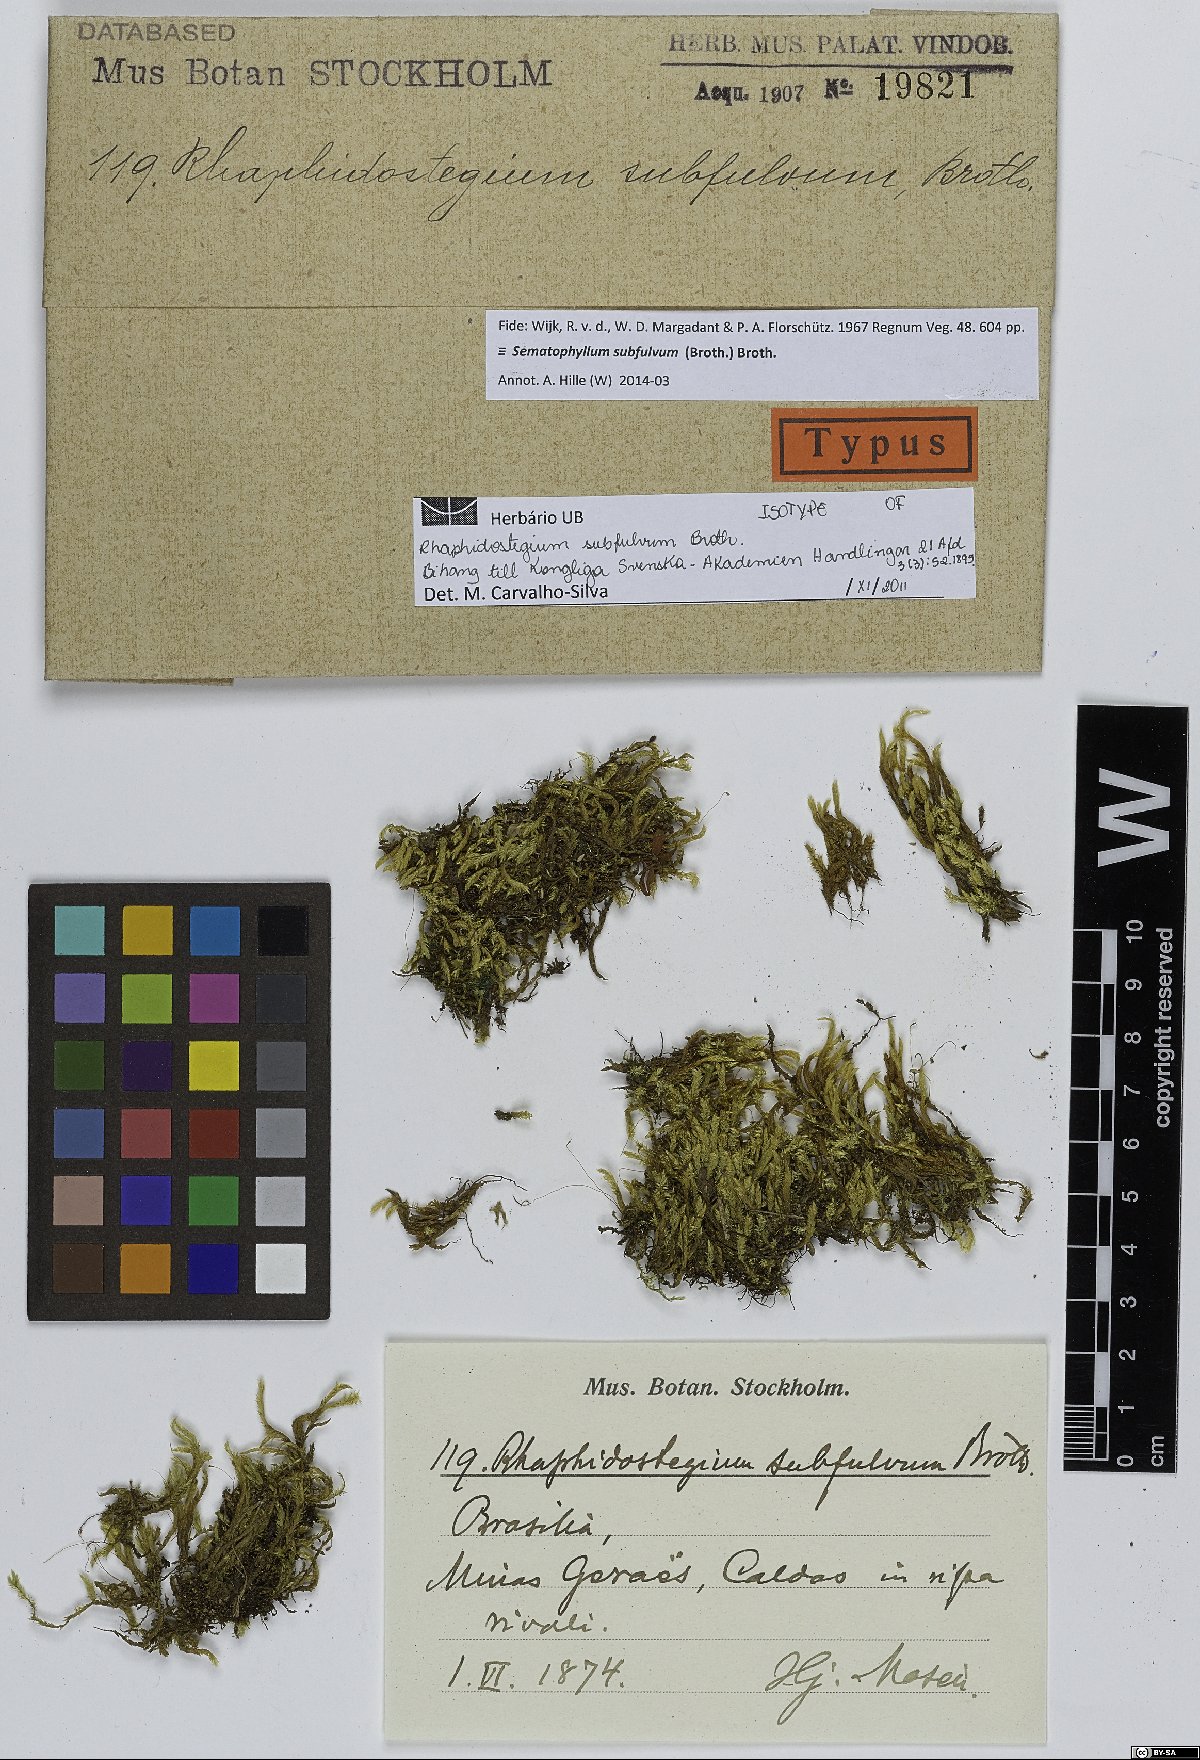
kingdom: Plantae
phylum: Bryophyta
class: Bryopsida
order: Hypnales
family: Sematophyllaceae
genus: Sematophyllum
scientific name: Sematophyllum subfulvum
